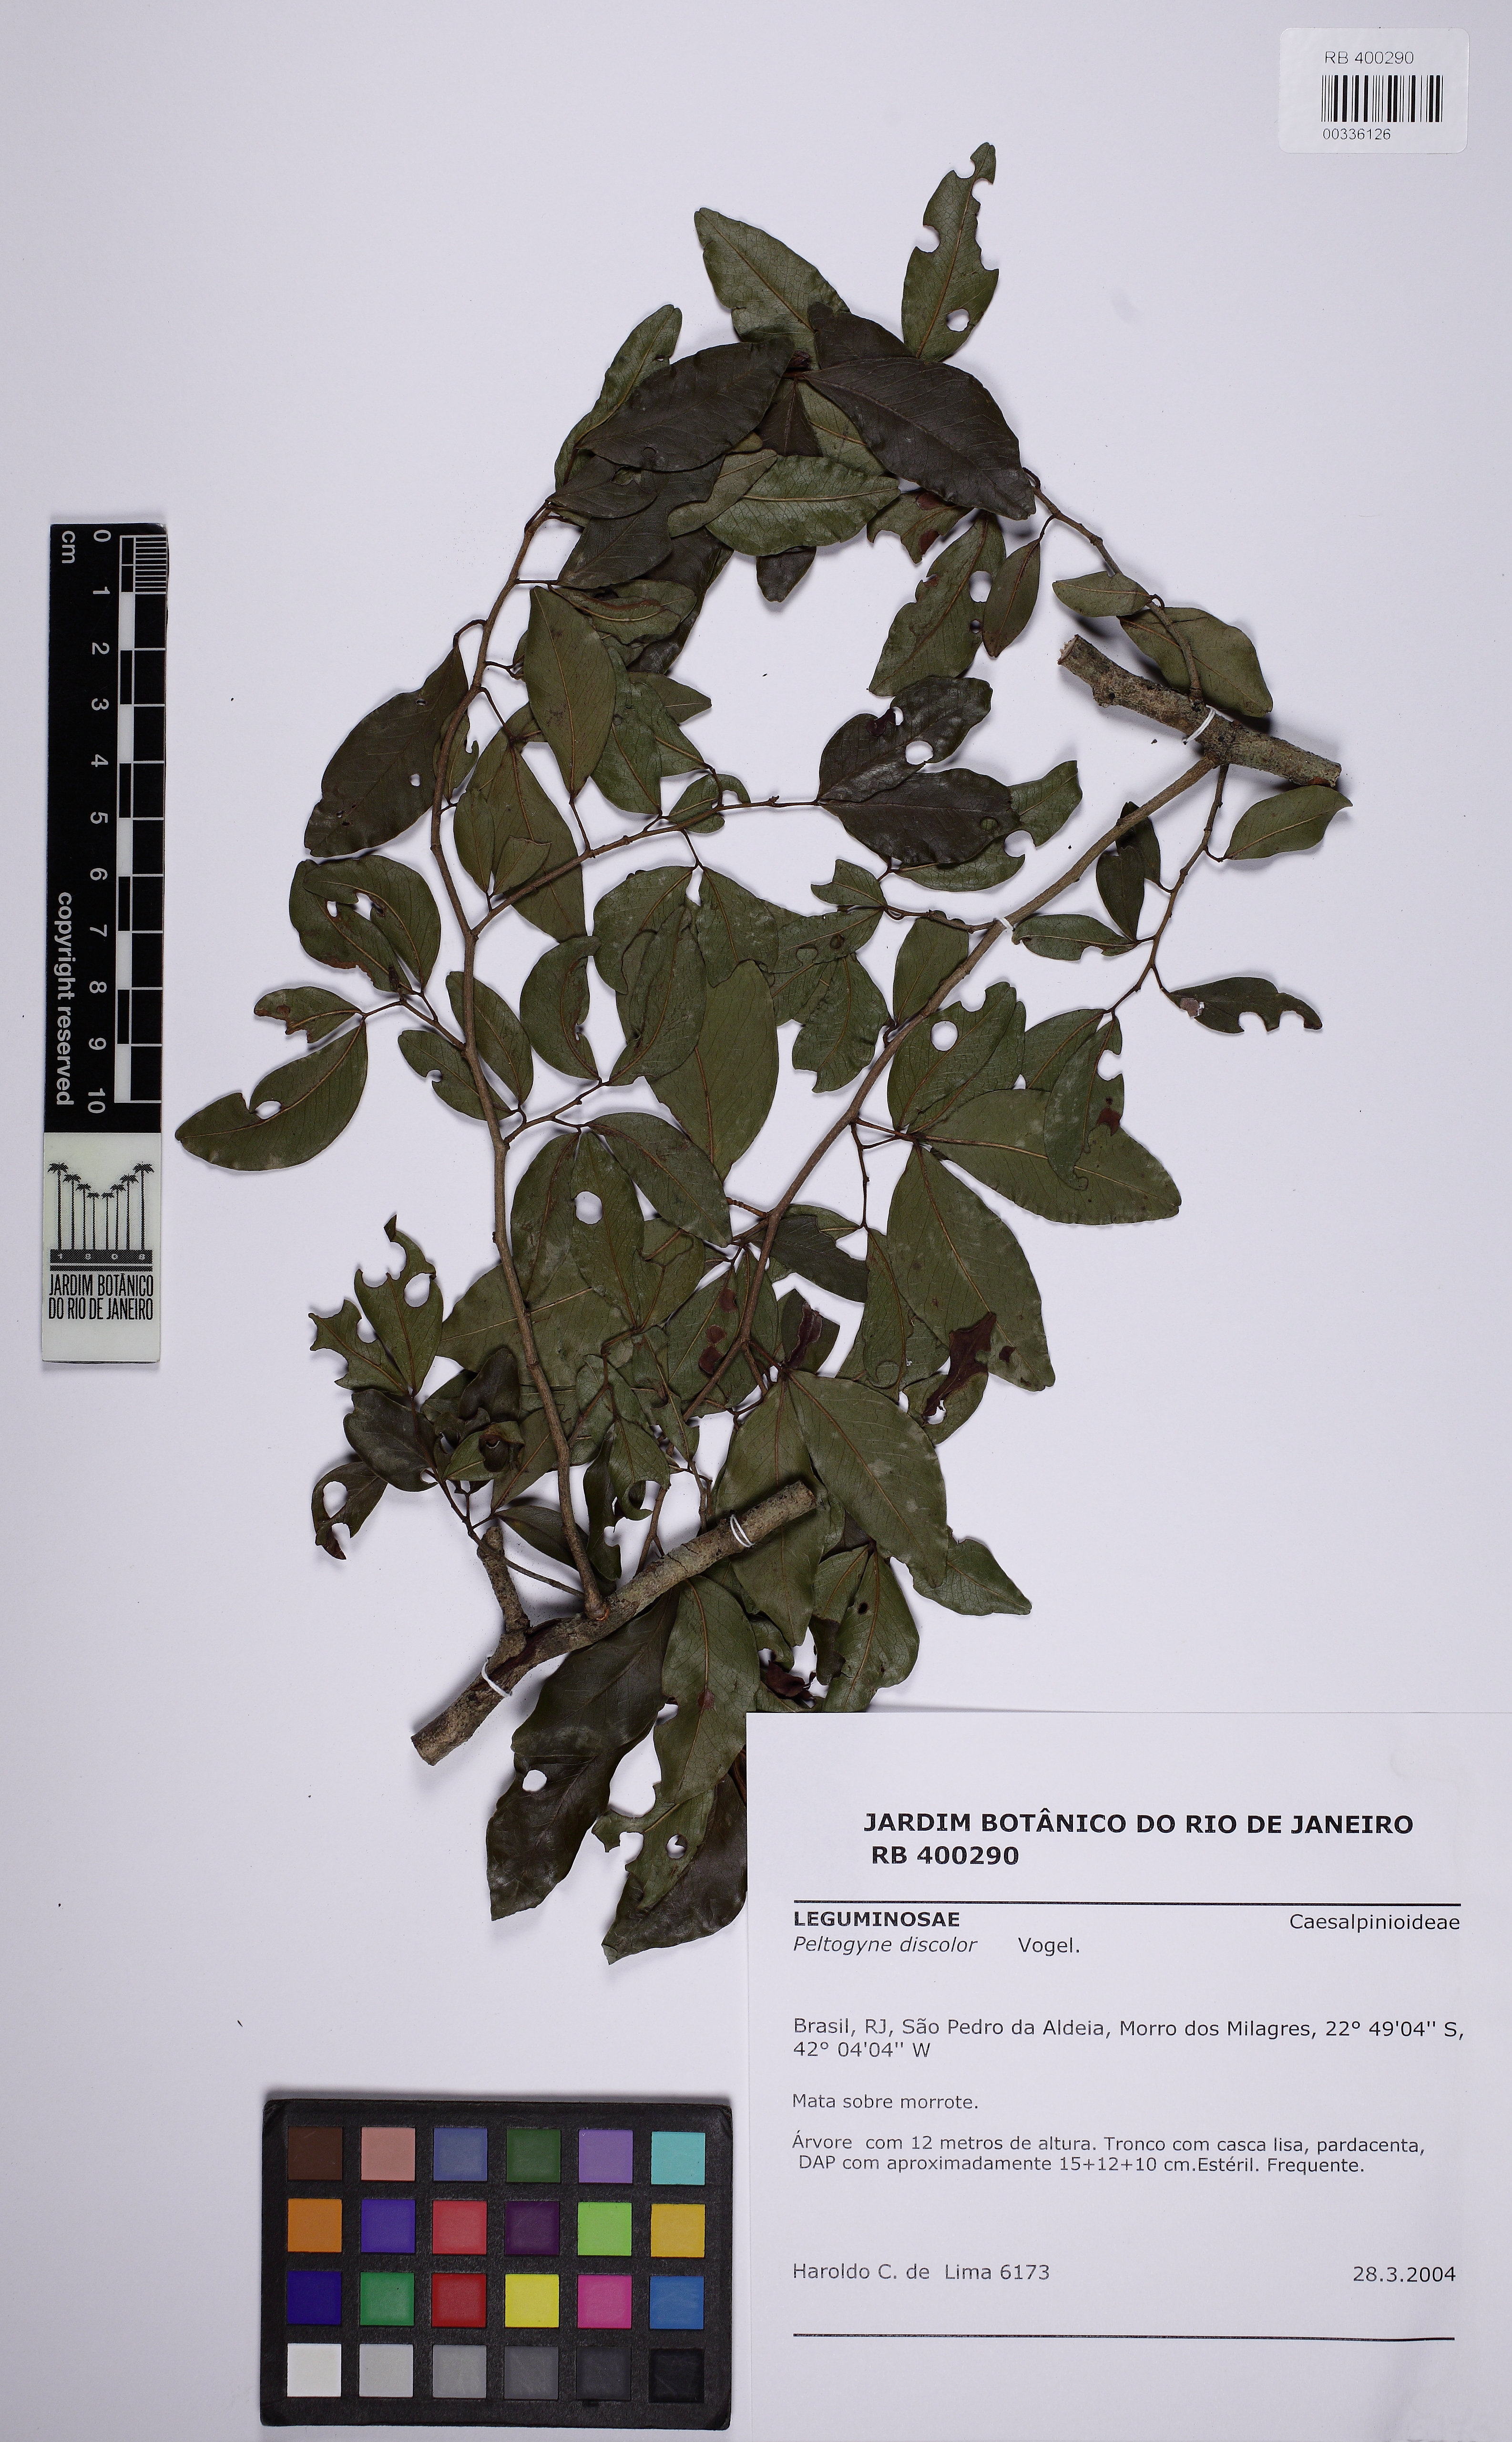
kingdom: Plantae
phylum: Tracheophyta
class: Magnoliopsida
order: Fabales
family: Fabaceae
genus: Peltogyne
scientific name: Peltogyne discolor
